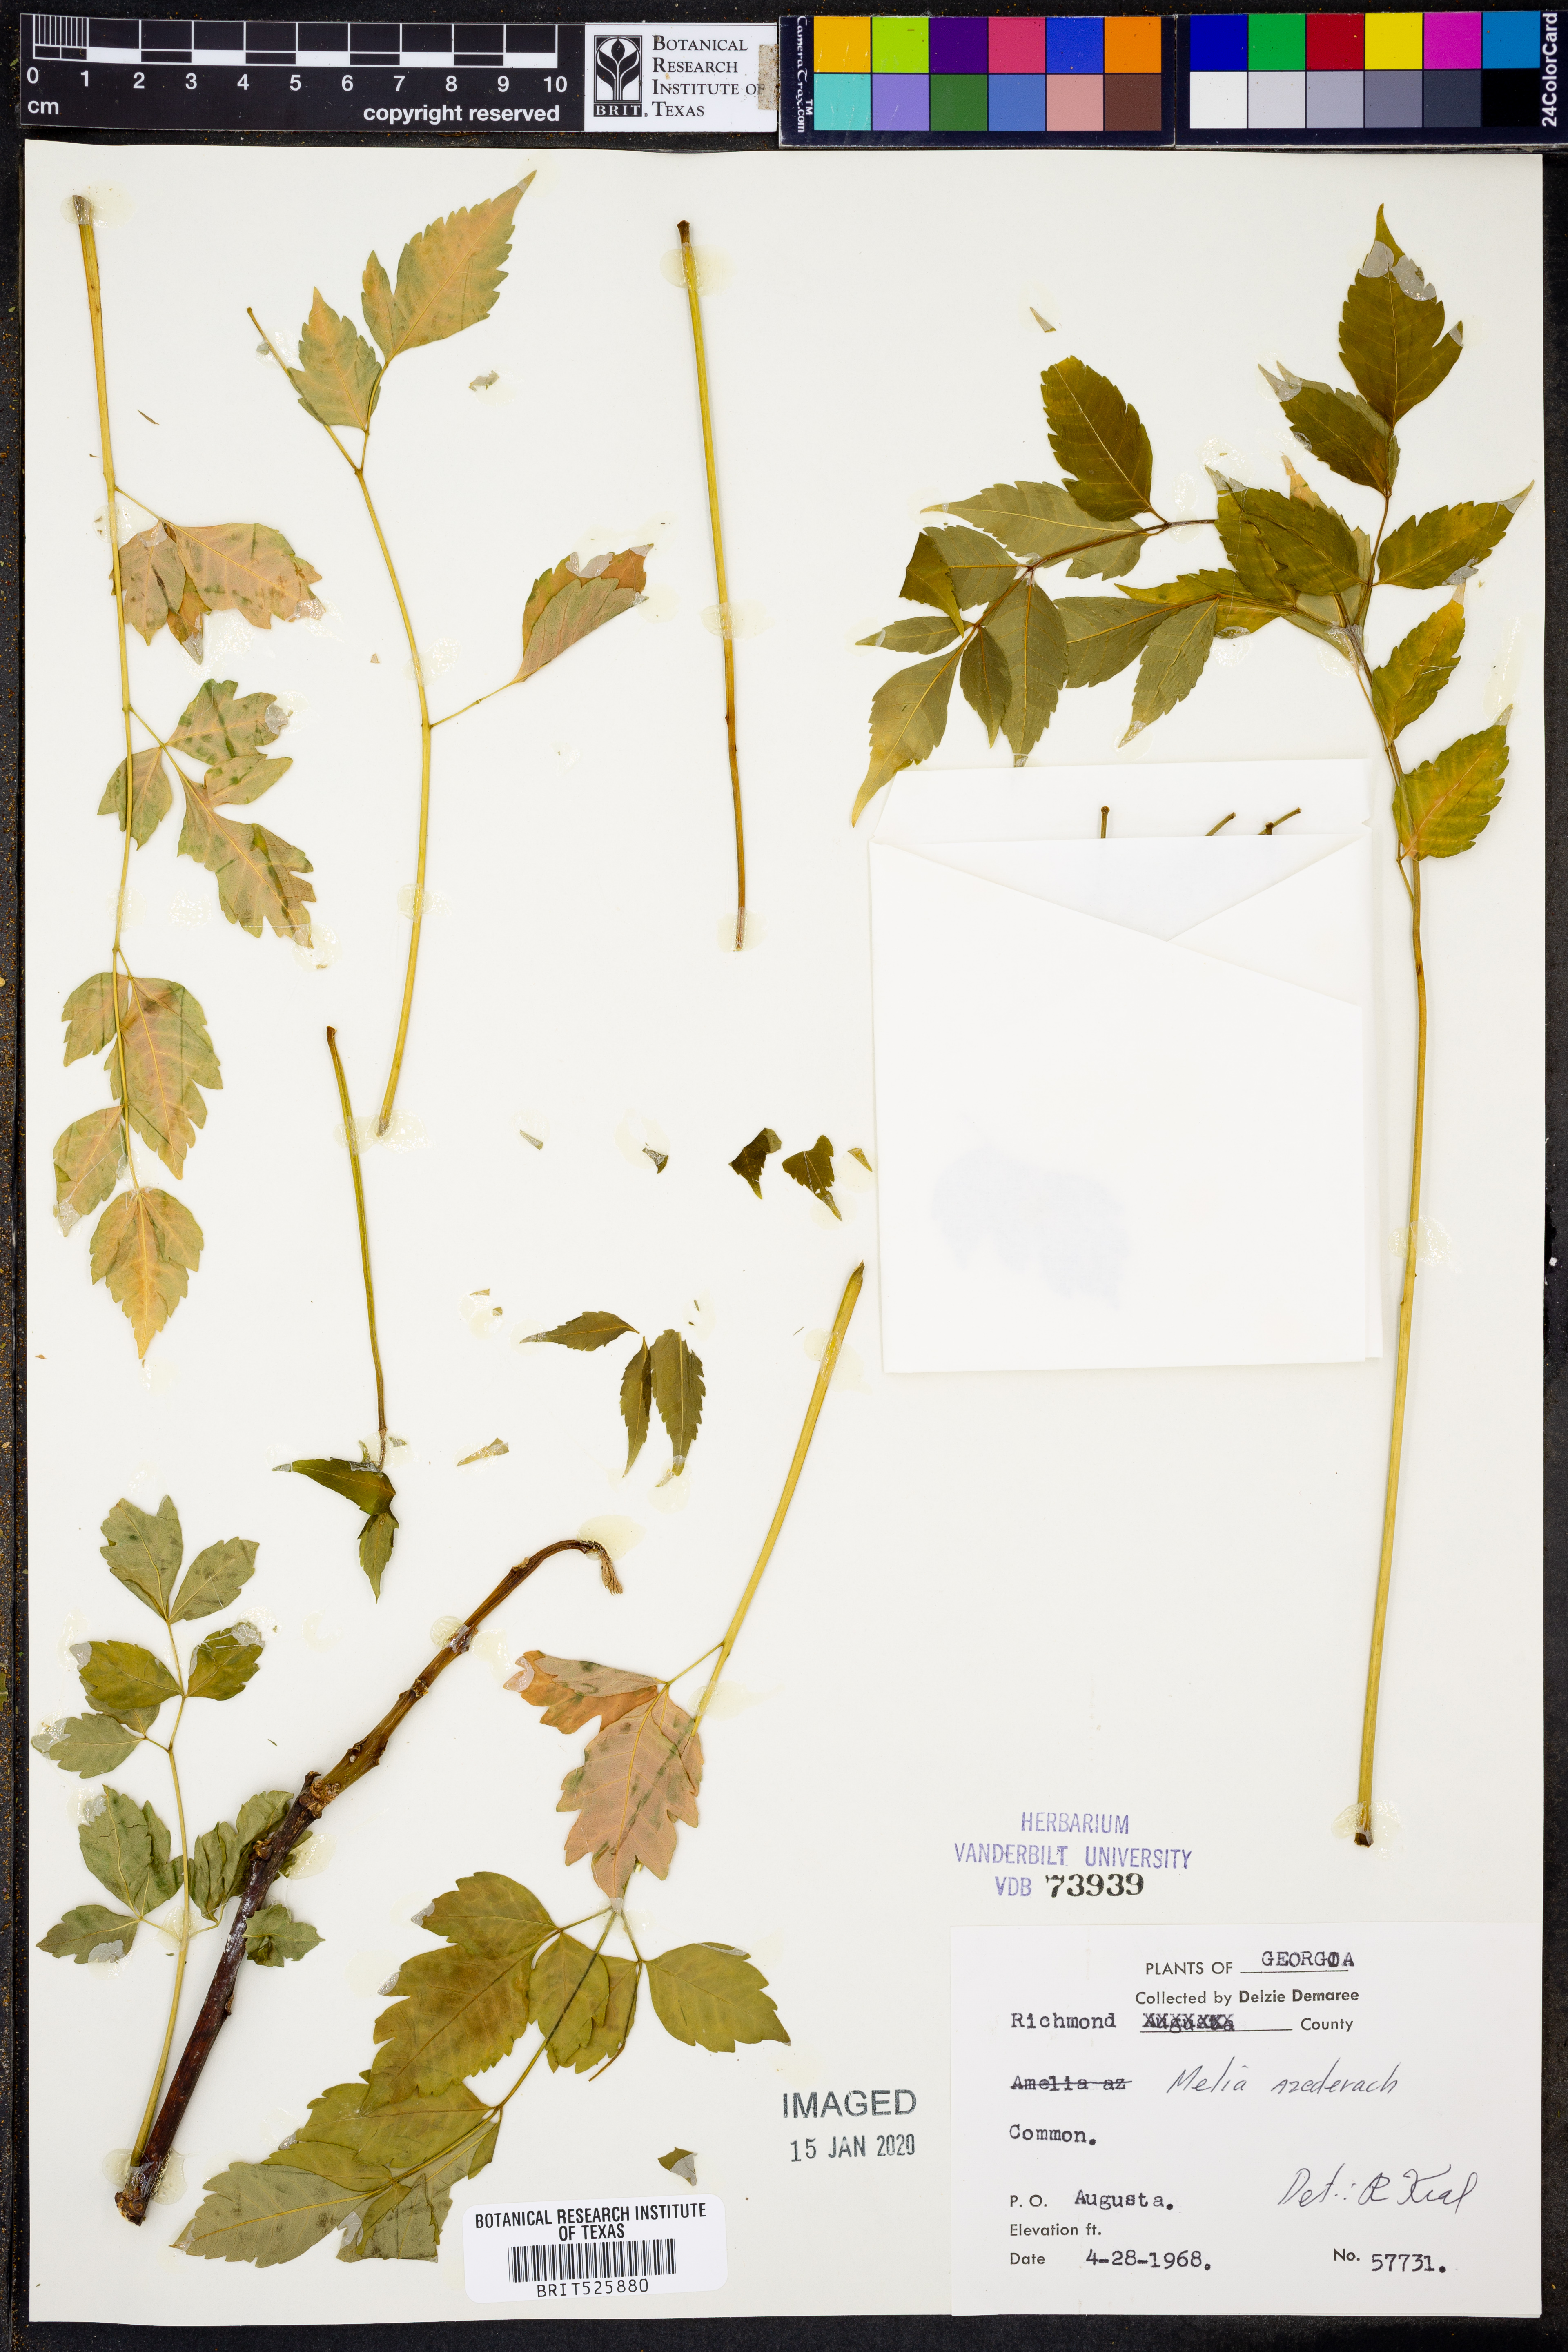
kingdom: Plantae
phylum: Tracheophyta
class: Magnoliopsida
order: Sapindales
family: Meliaceae
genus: Melia
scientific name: Melia azedarach
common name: Chinaberrytree
